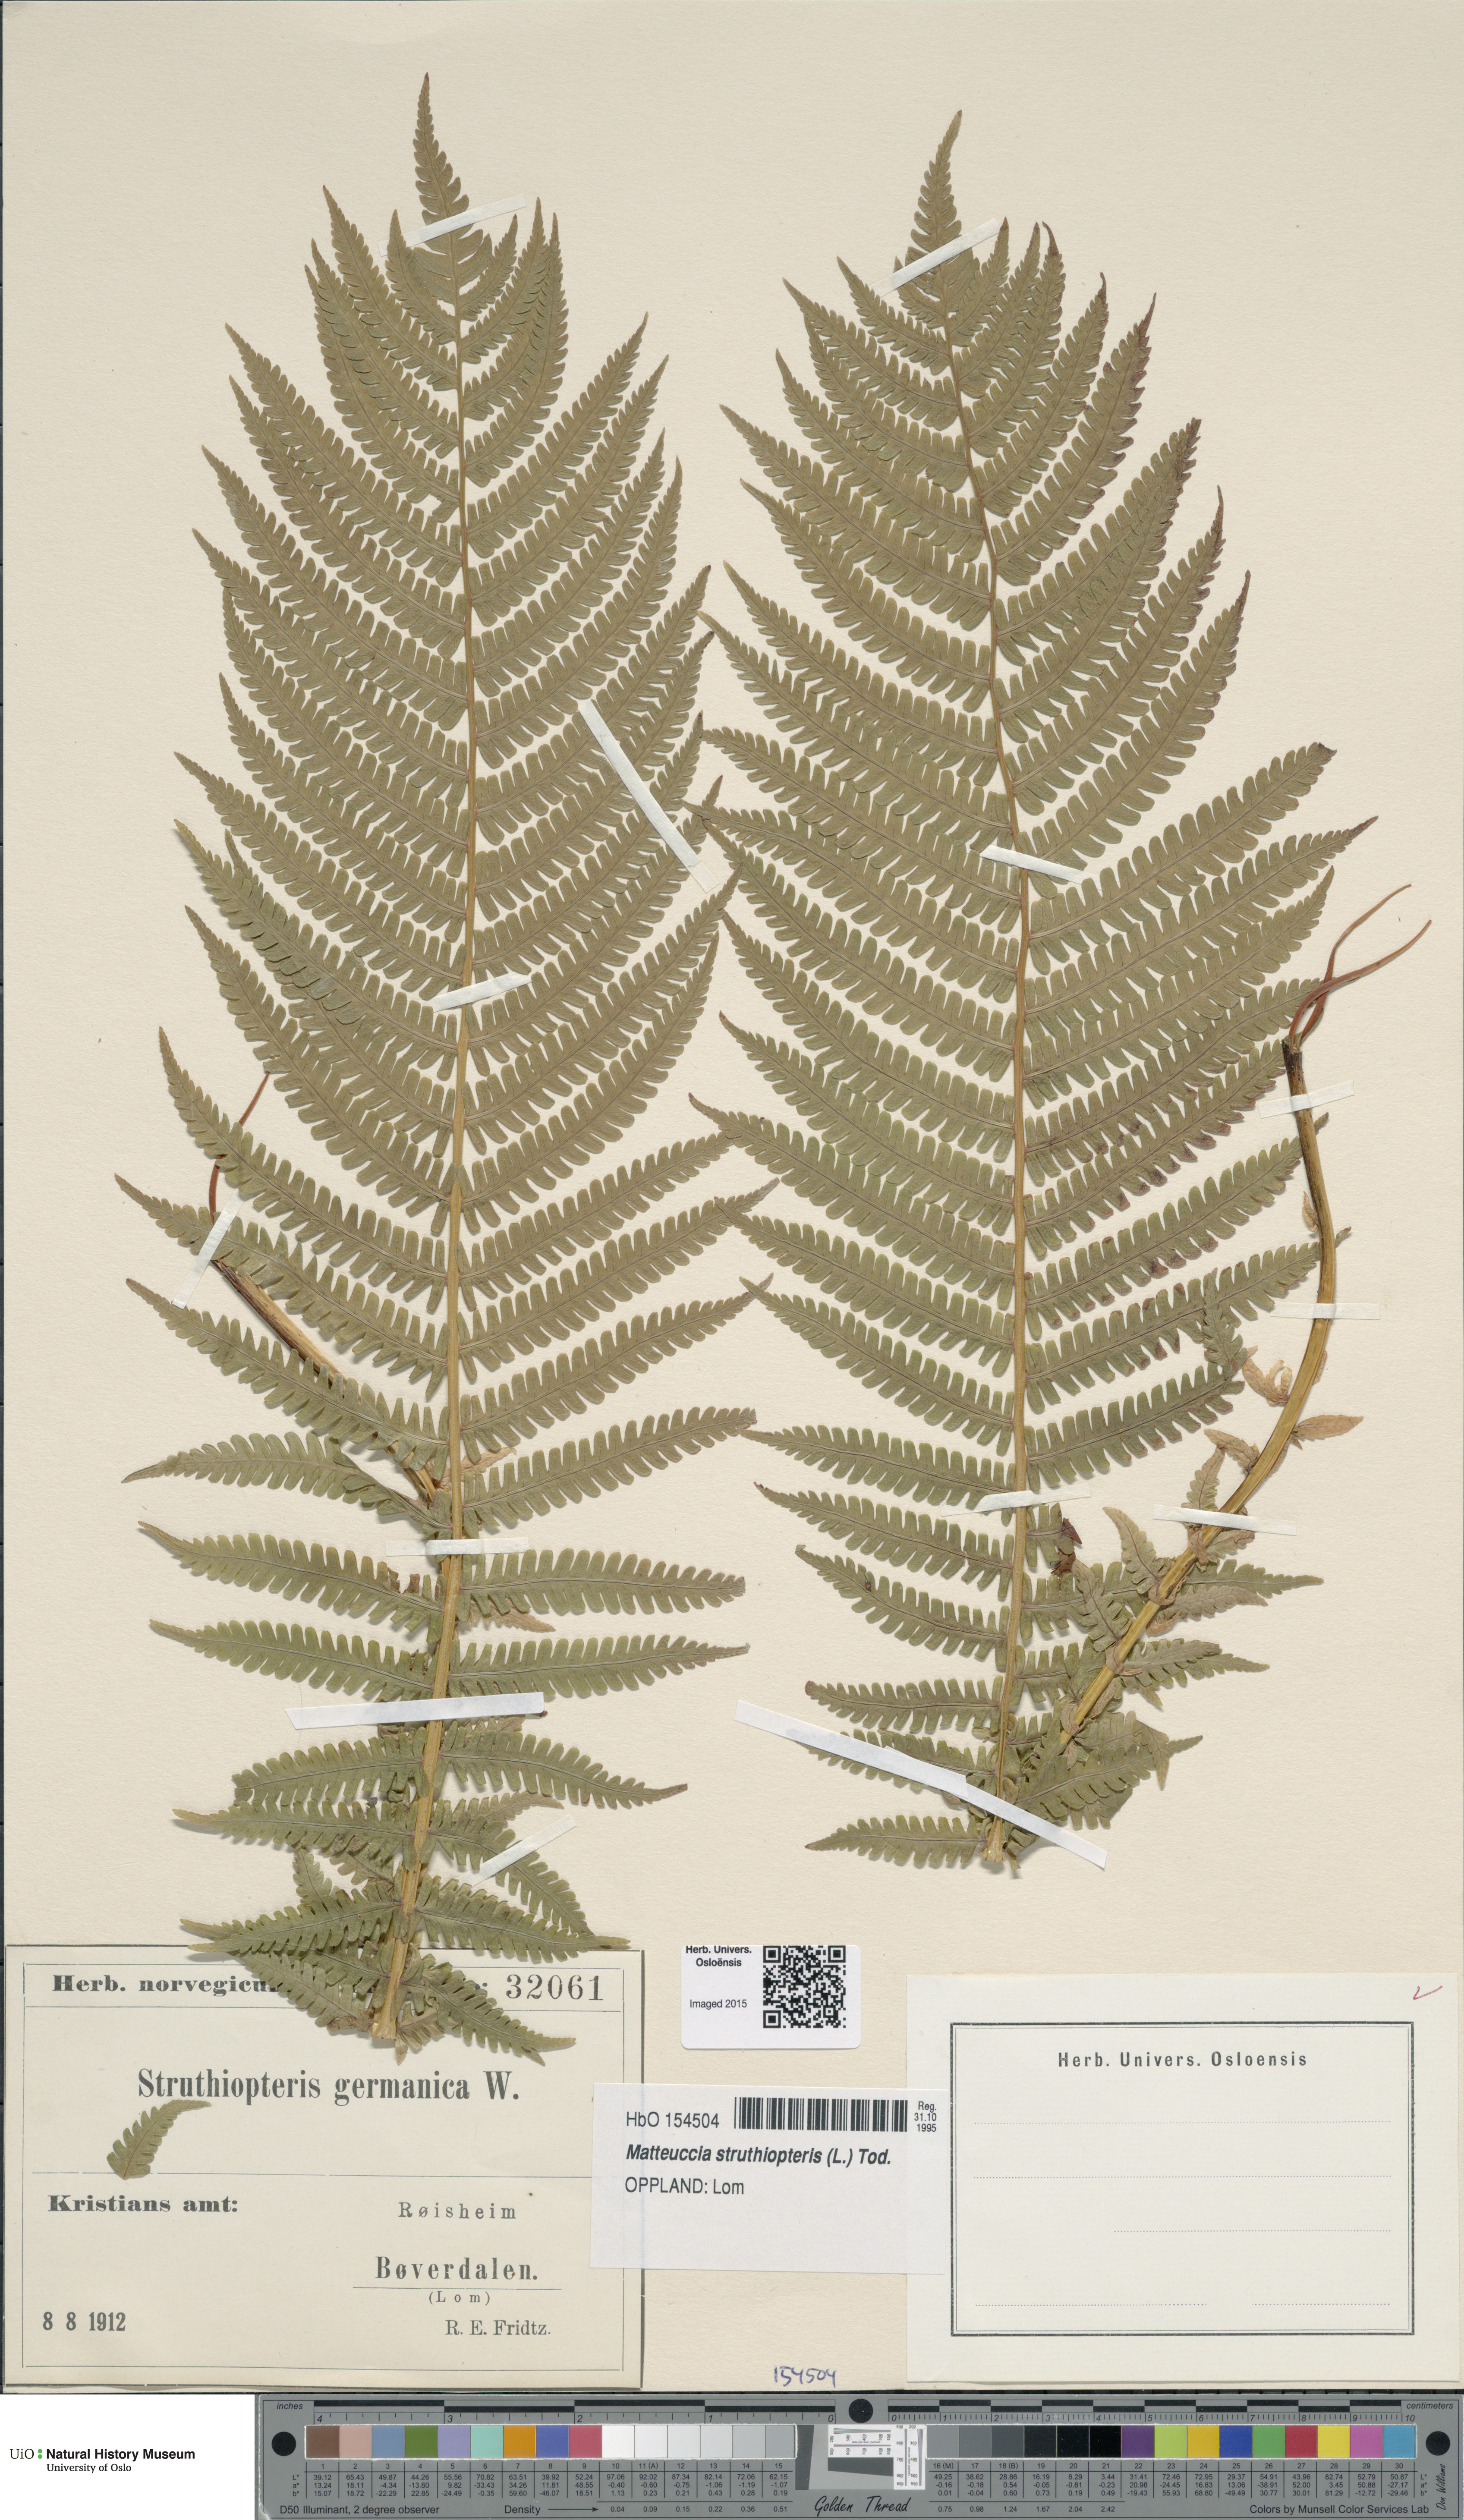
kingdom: Plantae
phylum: Tracheophyta
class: Polypodiopsida
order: Polypodiales
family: Onocleaceae
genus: Matteuccia
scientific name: Matteuccia struthiopteris
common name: Ostrich fern
